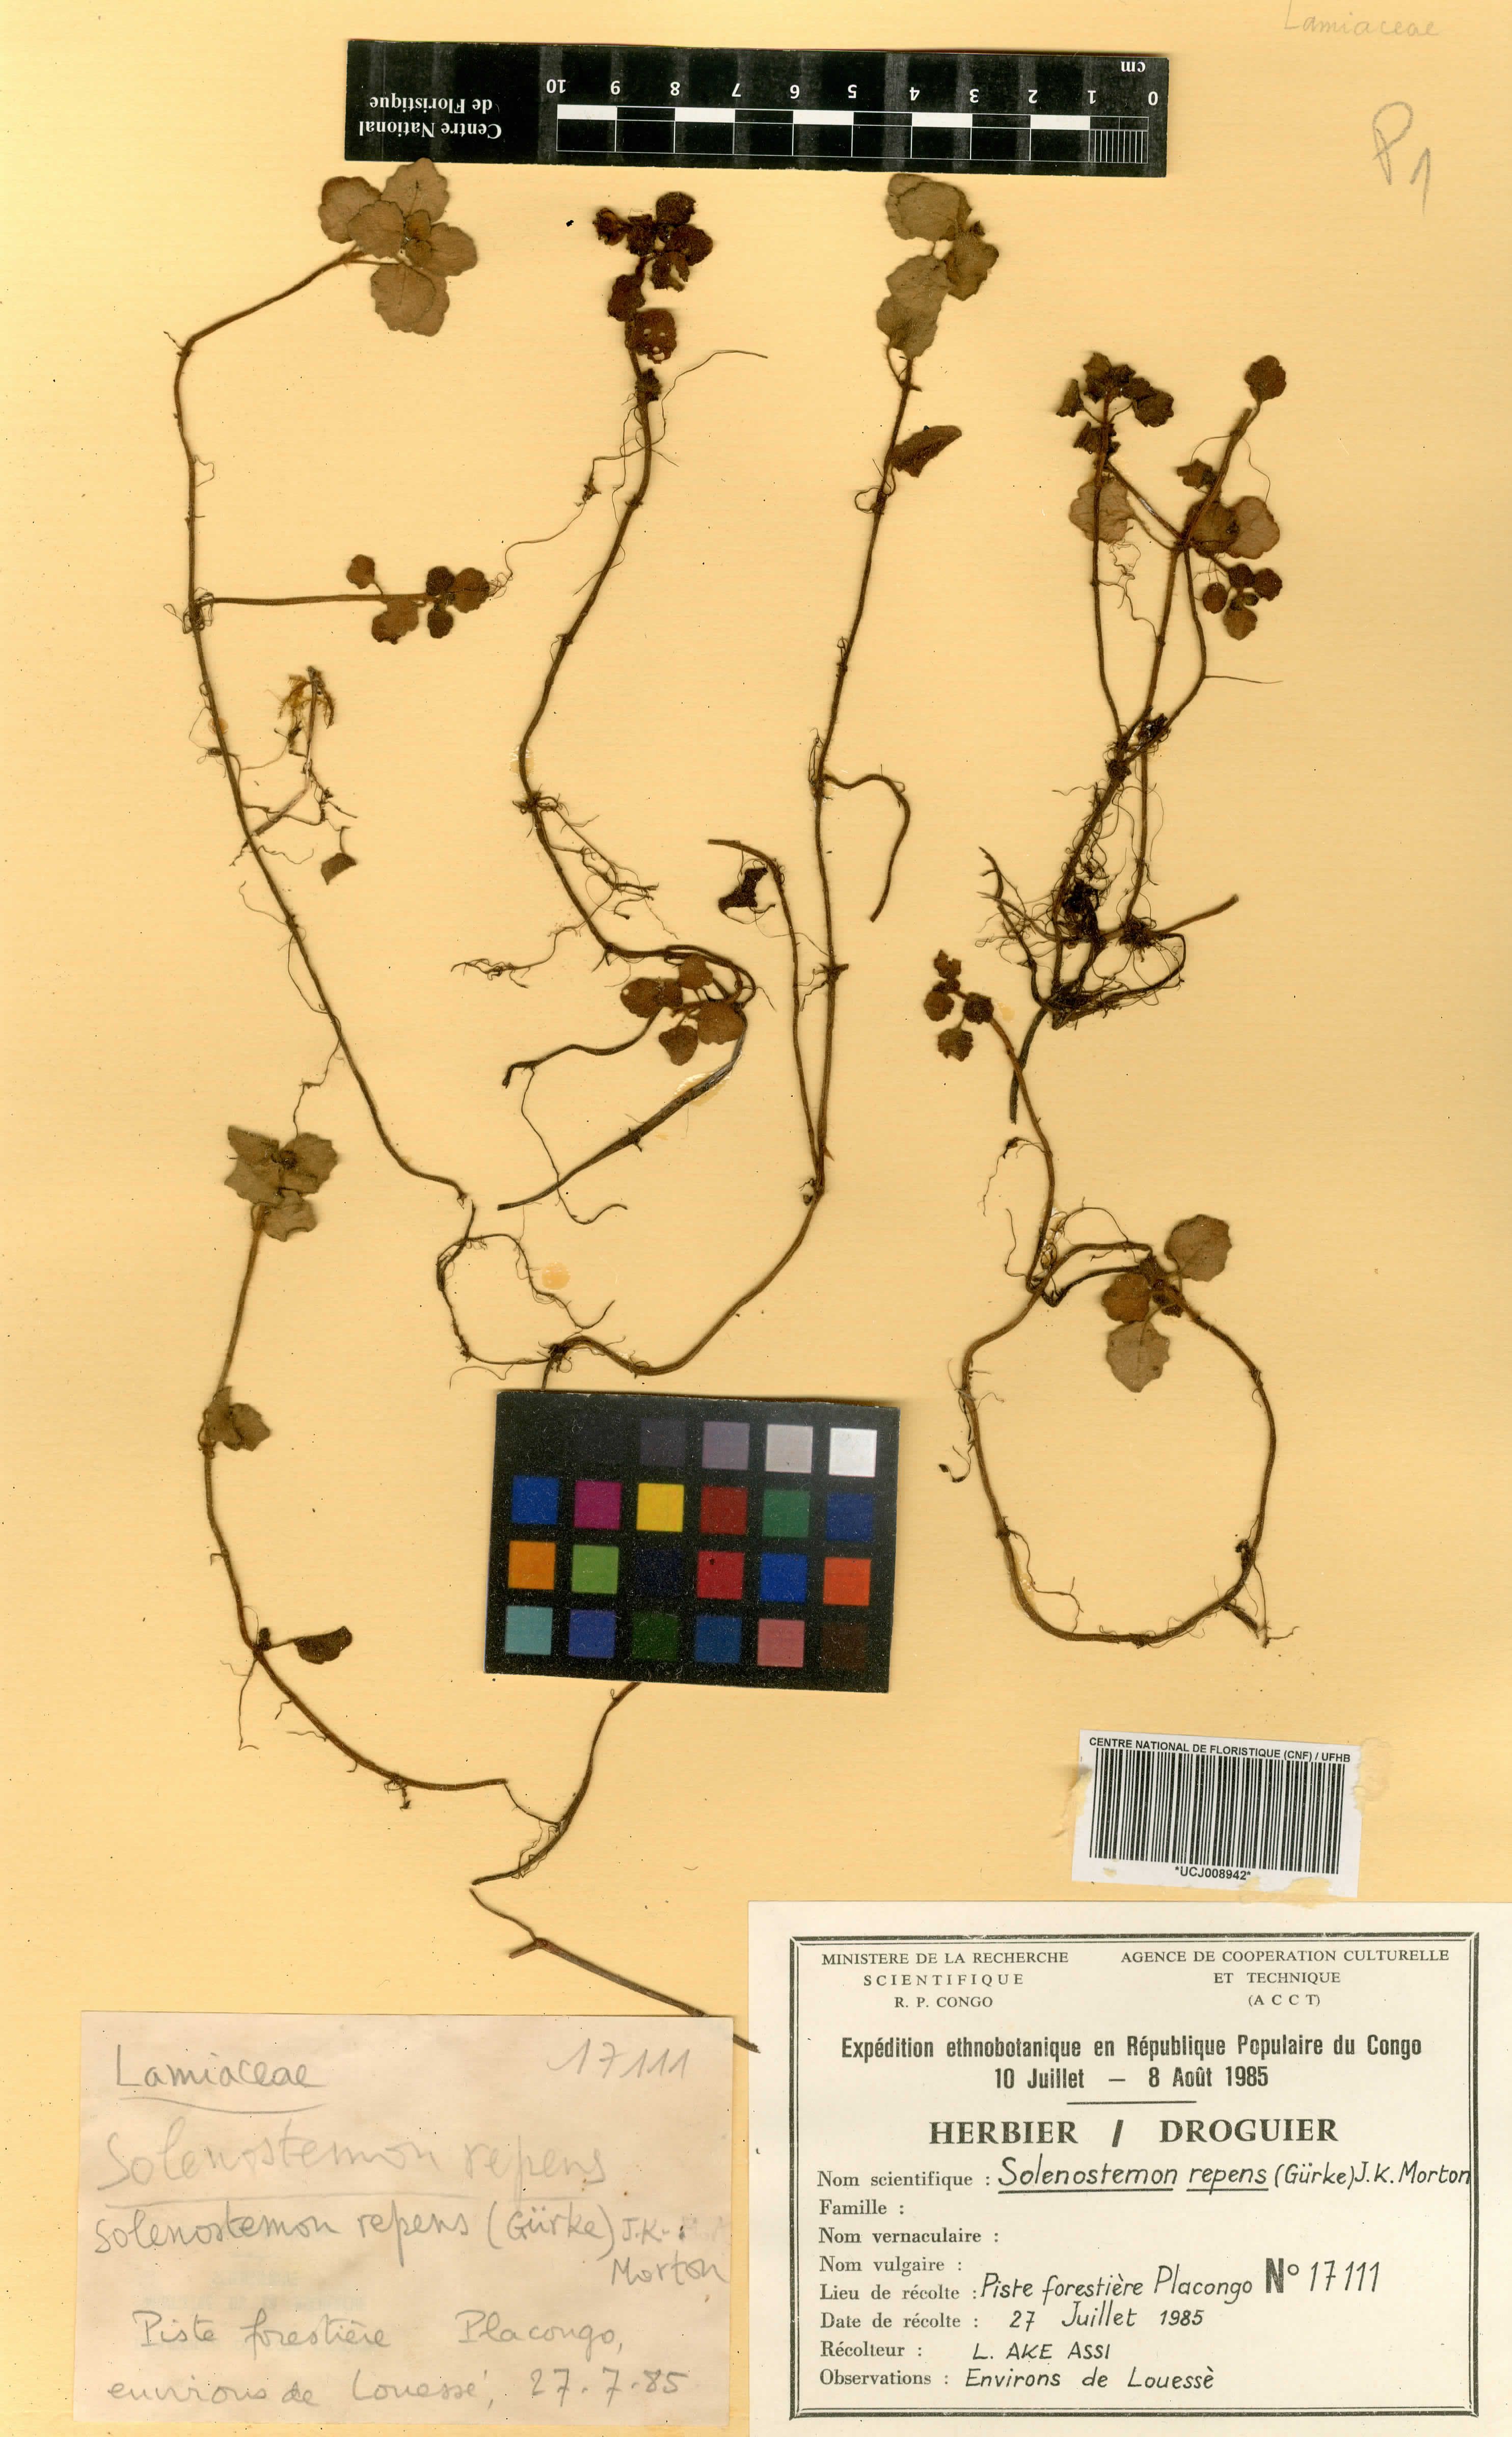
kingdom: Plantae
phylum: Tracheophyta
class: Magnoliopsida
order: Lamiales
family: Lamiaceae
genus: Coleus
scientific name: Coleus repens
